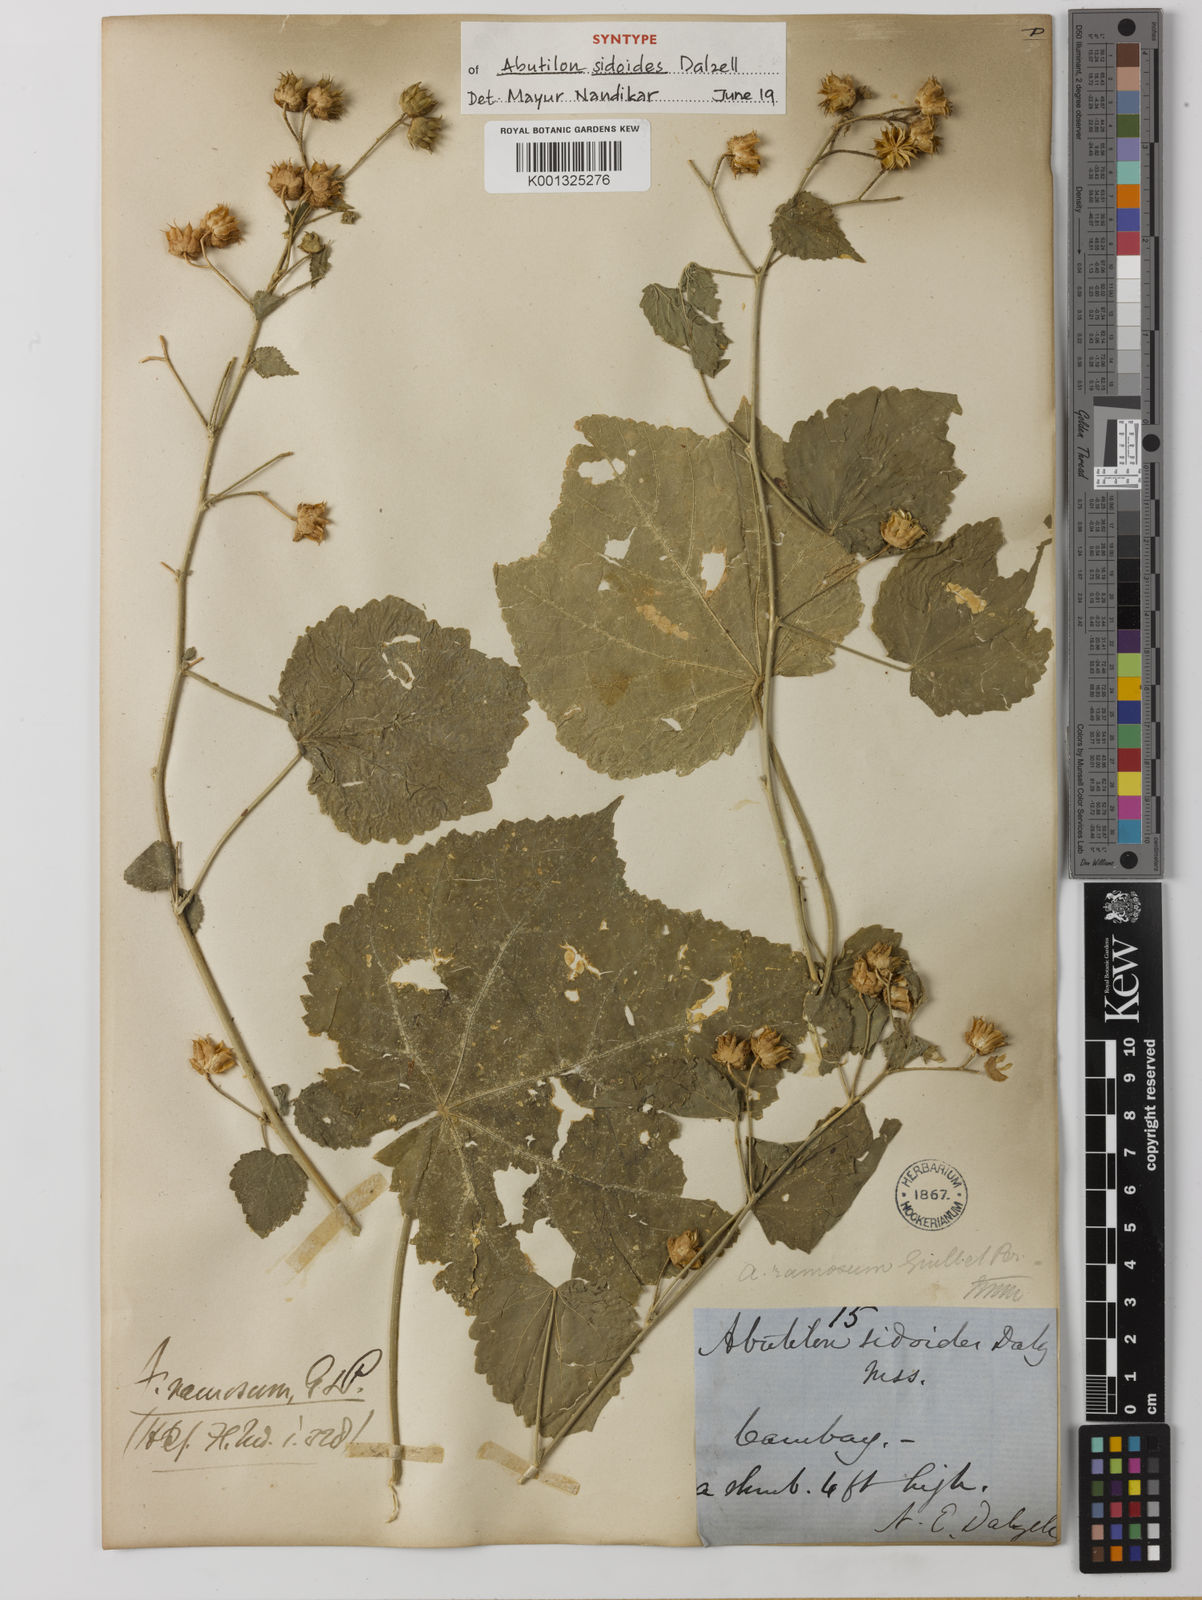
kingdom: Plantae
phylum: Tracheophyta
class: Magnoliopsida
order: Malvales
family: Malvaceae
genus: Abutilon
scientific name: Abutilon ramosum
